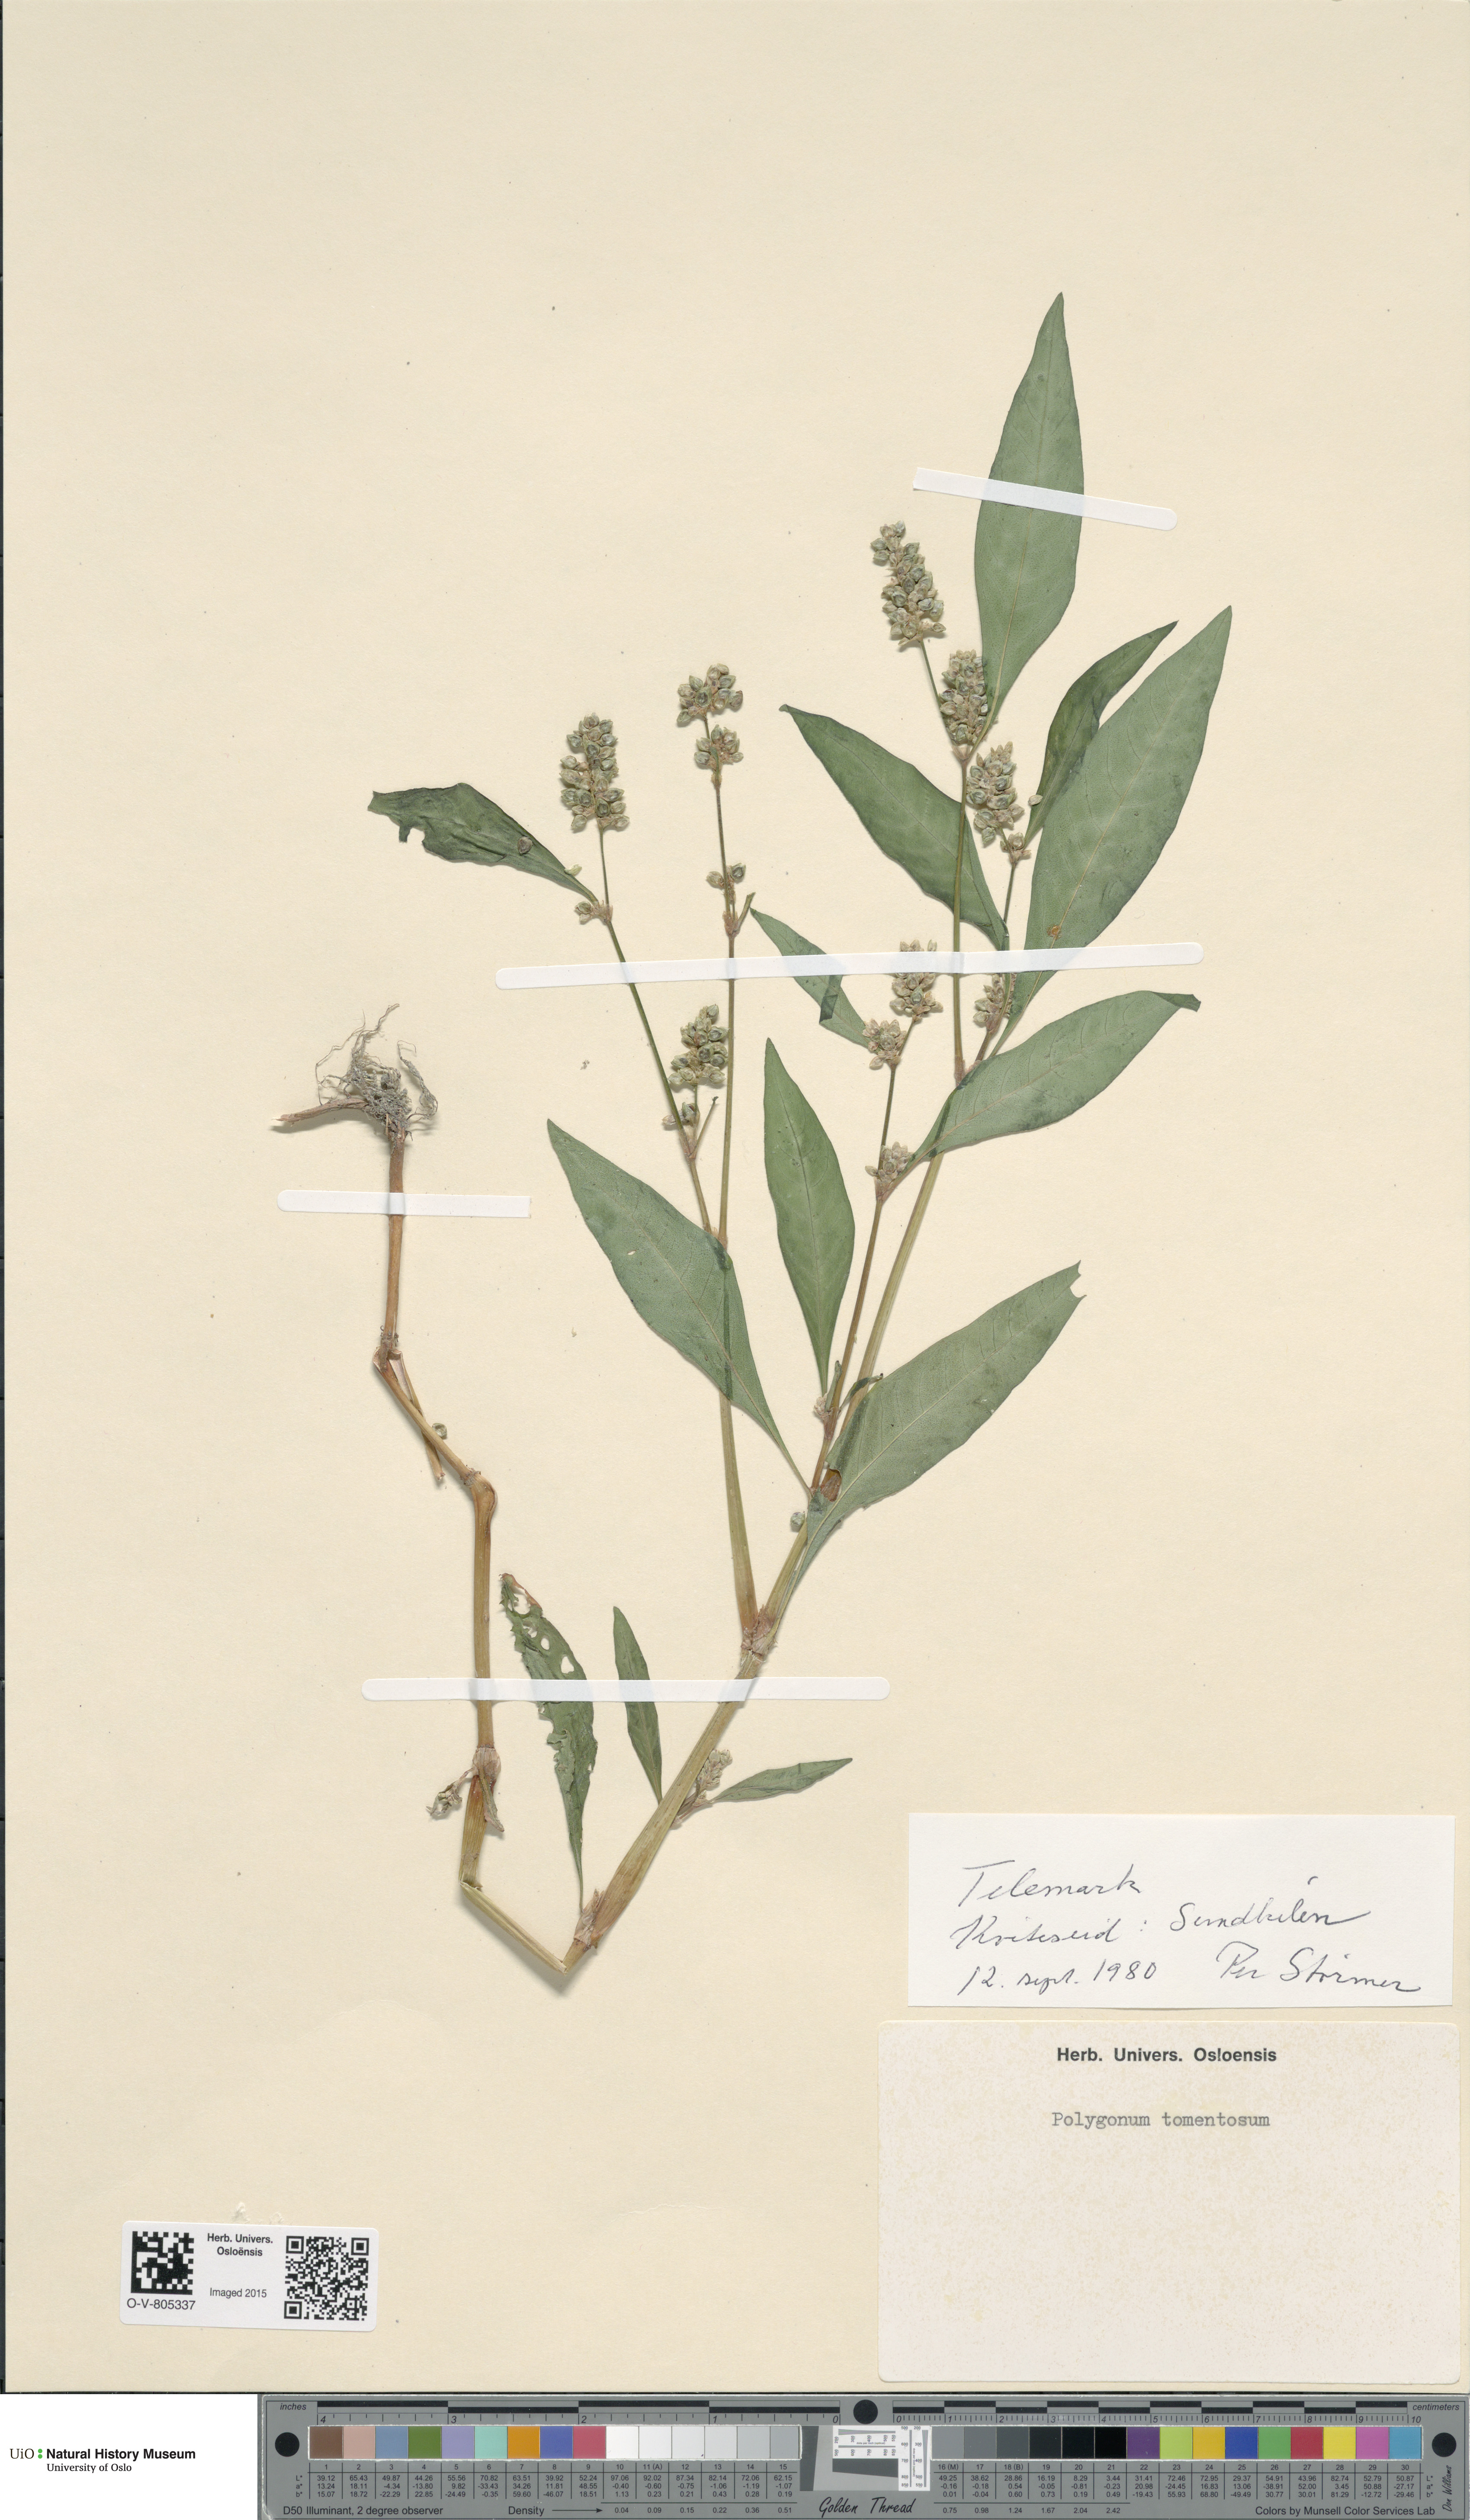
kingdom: Plantae
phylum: Tracheophyta
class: Magnoliopsida
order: Caryophyllales
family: Polygonaceae
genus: Persicaria
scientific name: Persicaria lapathifolia
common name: Curlytop knotweed
